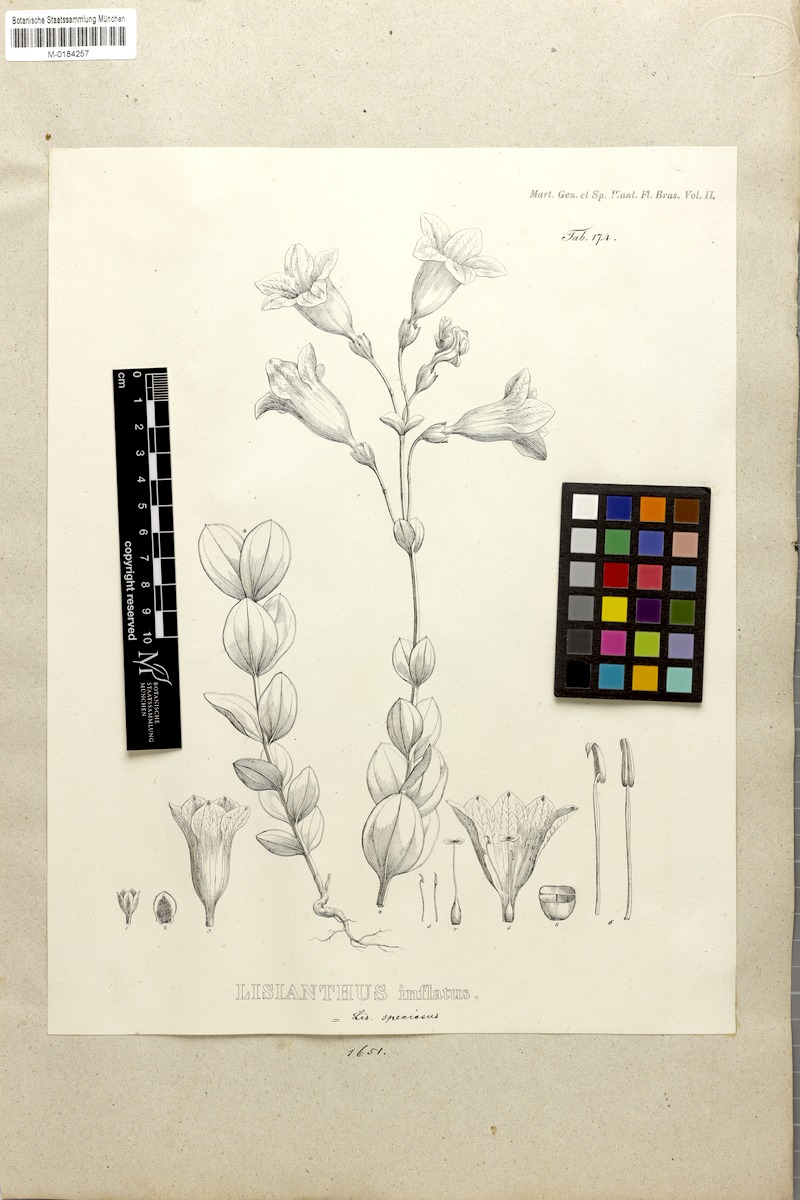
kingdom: Plantae
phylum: Tracheophyta
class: Magnoliopsida
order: Gentianales
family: Gentianaceae
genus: Calolisianthus
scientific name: Calolisianthus speciosus
